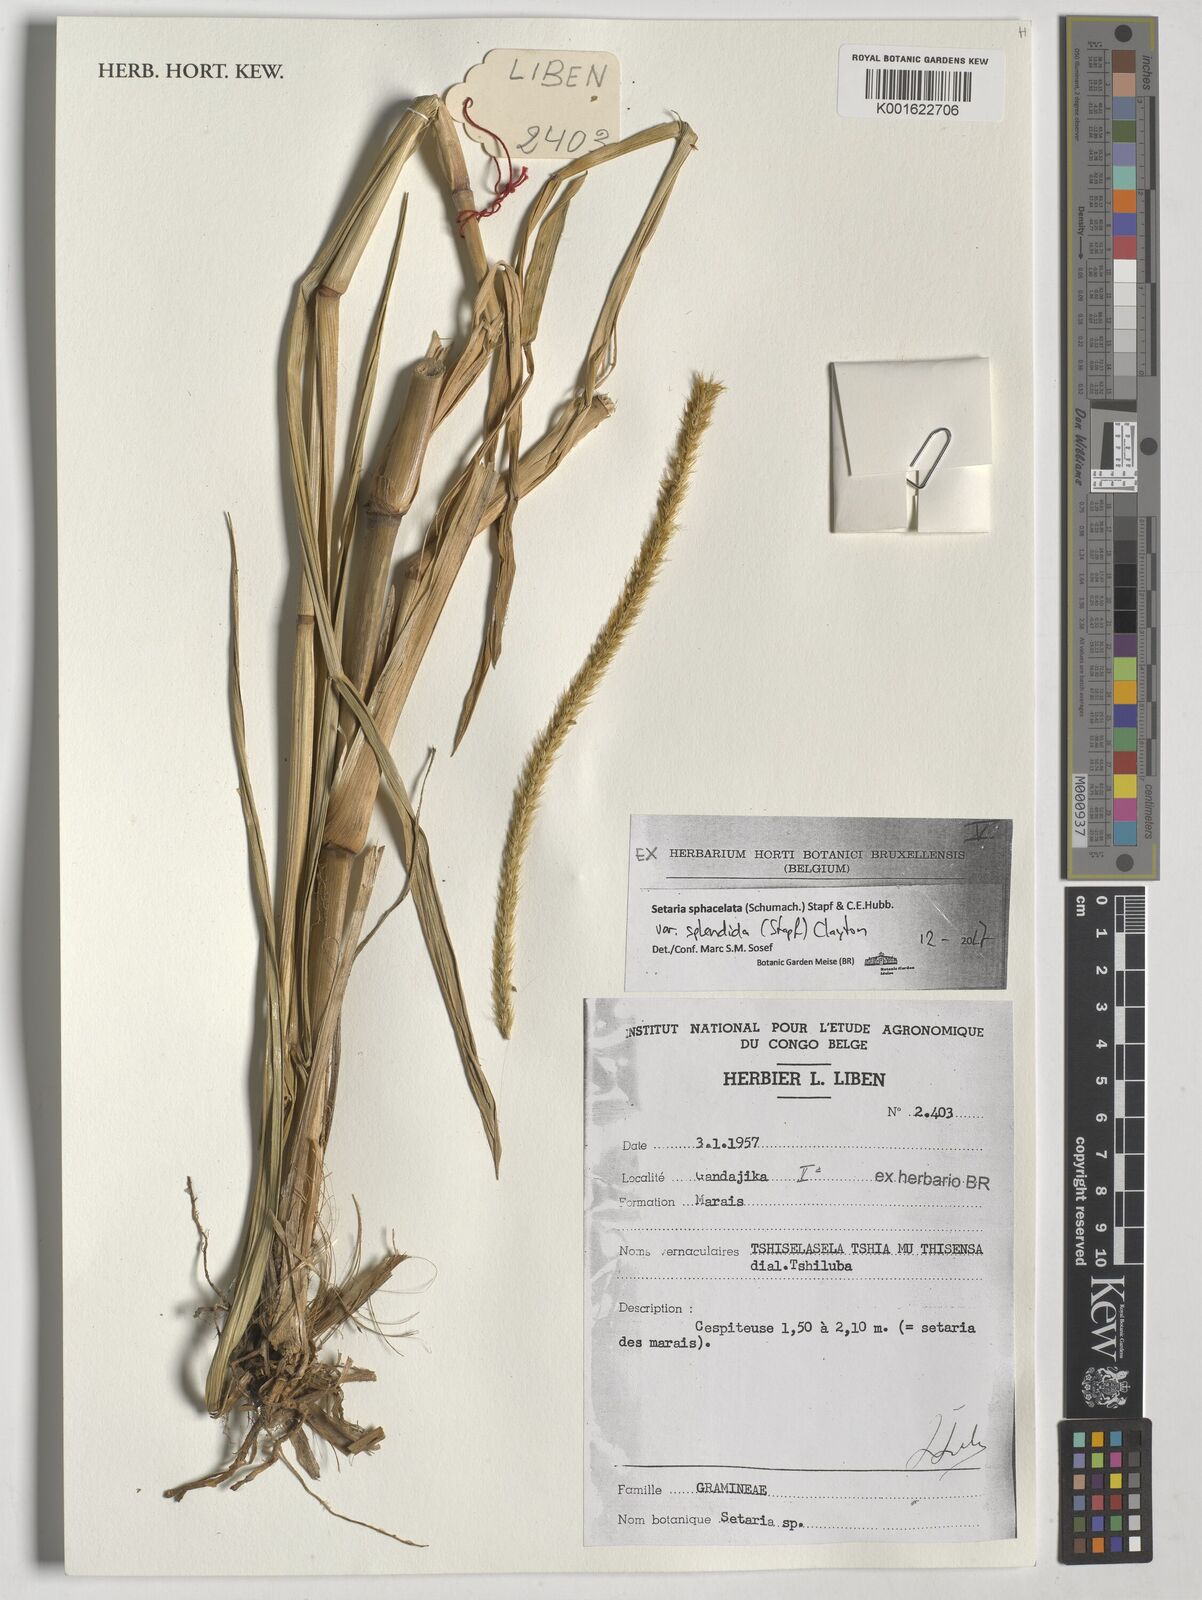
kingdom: Plantae
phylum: Tracheophyta
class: Liliopsida
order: Poales
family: Poaceae
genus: Setaria
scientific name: Setaria sphacelata
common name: African bristlegrass
